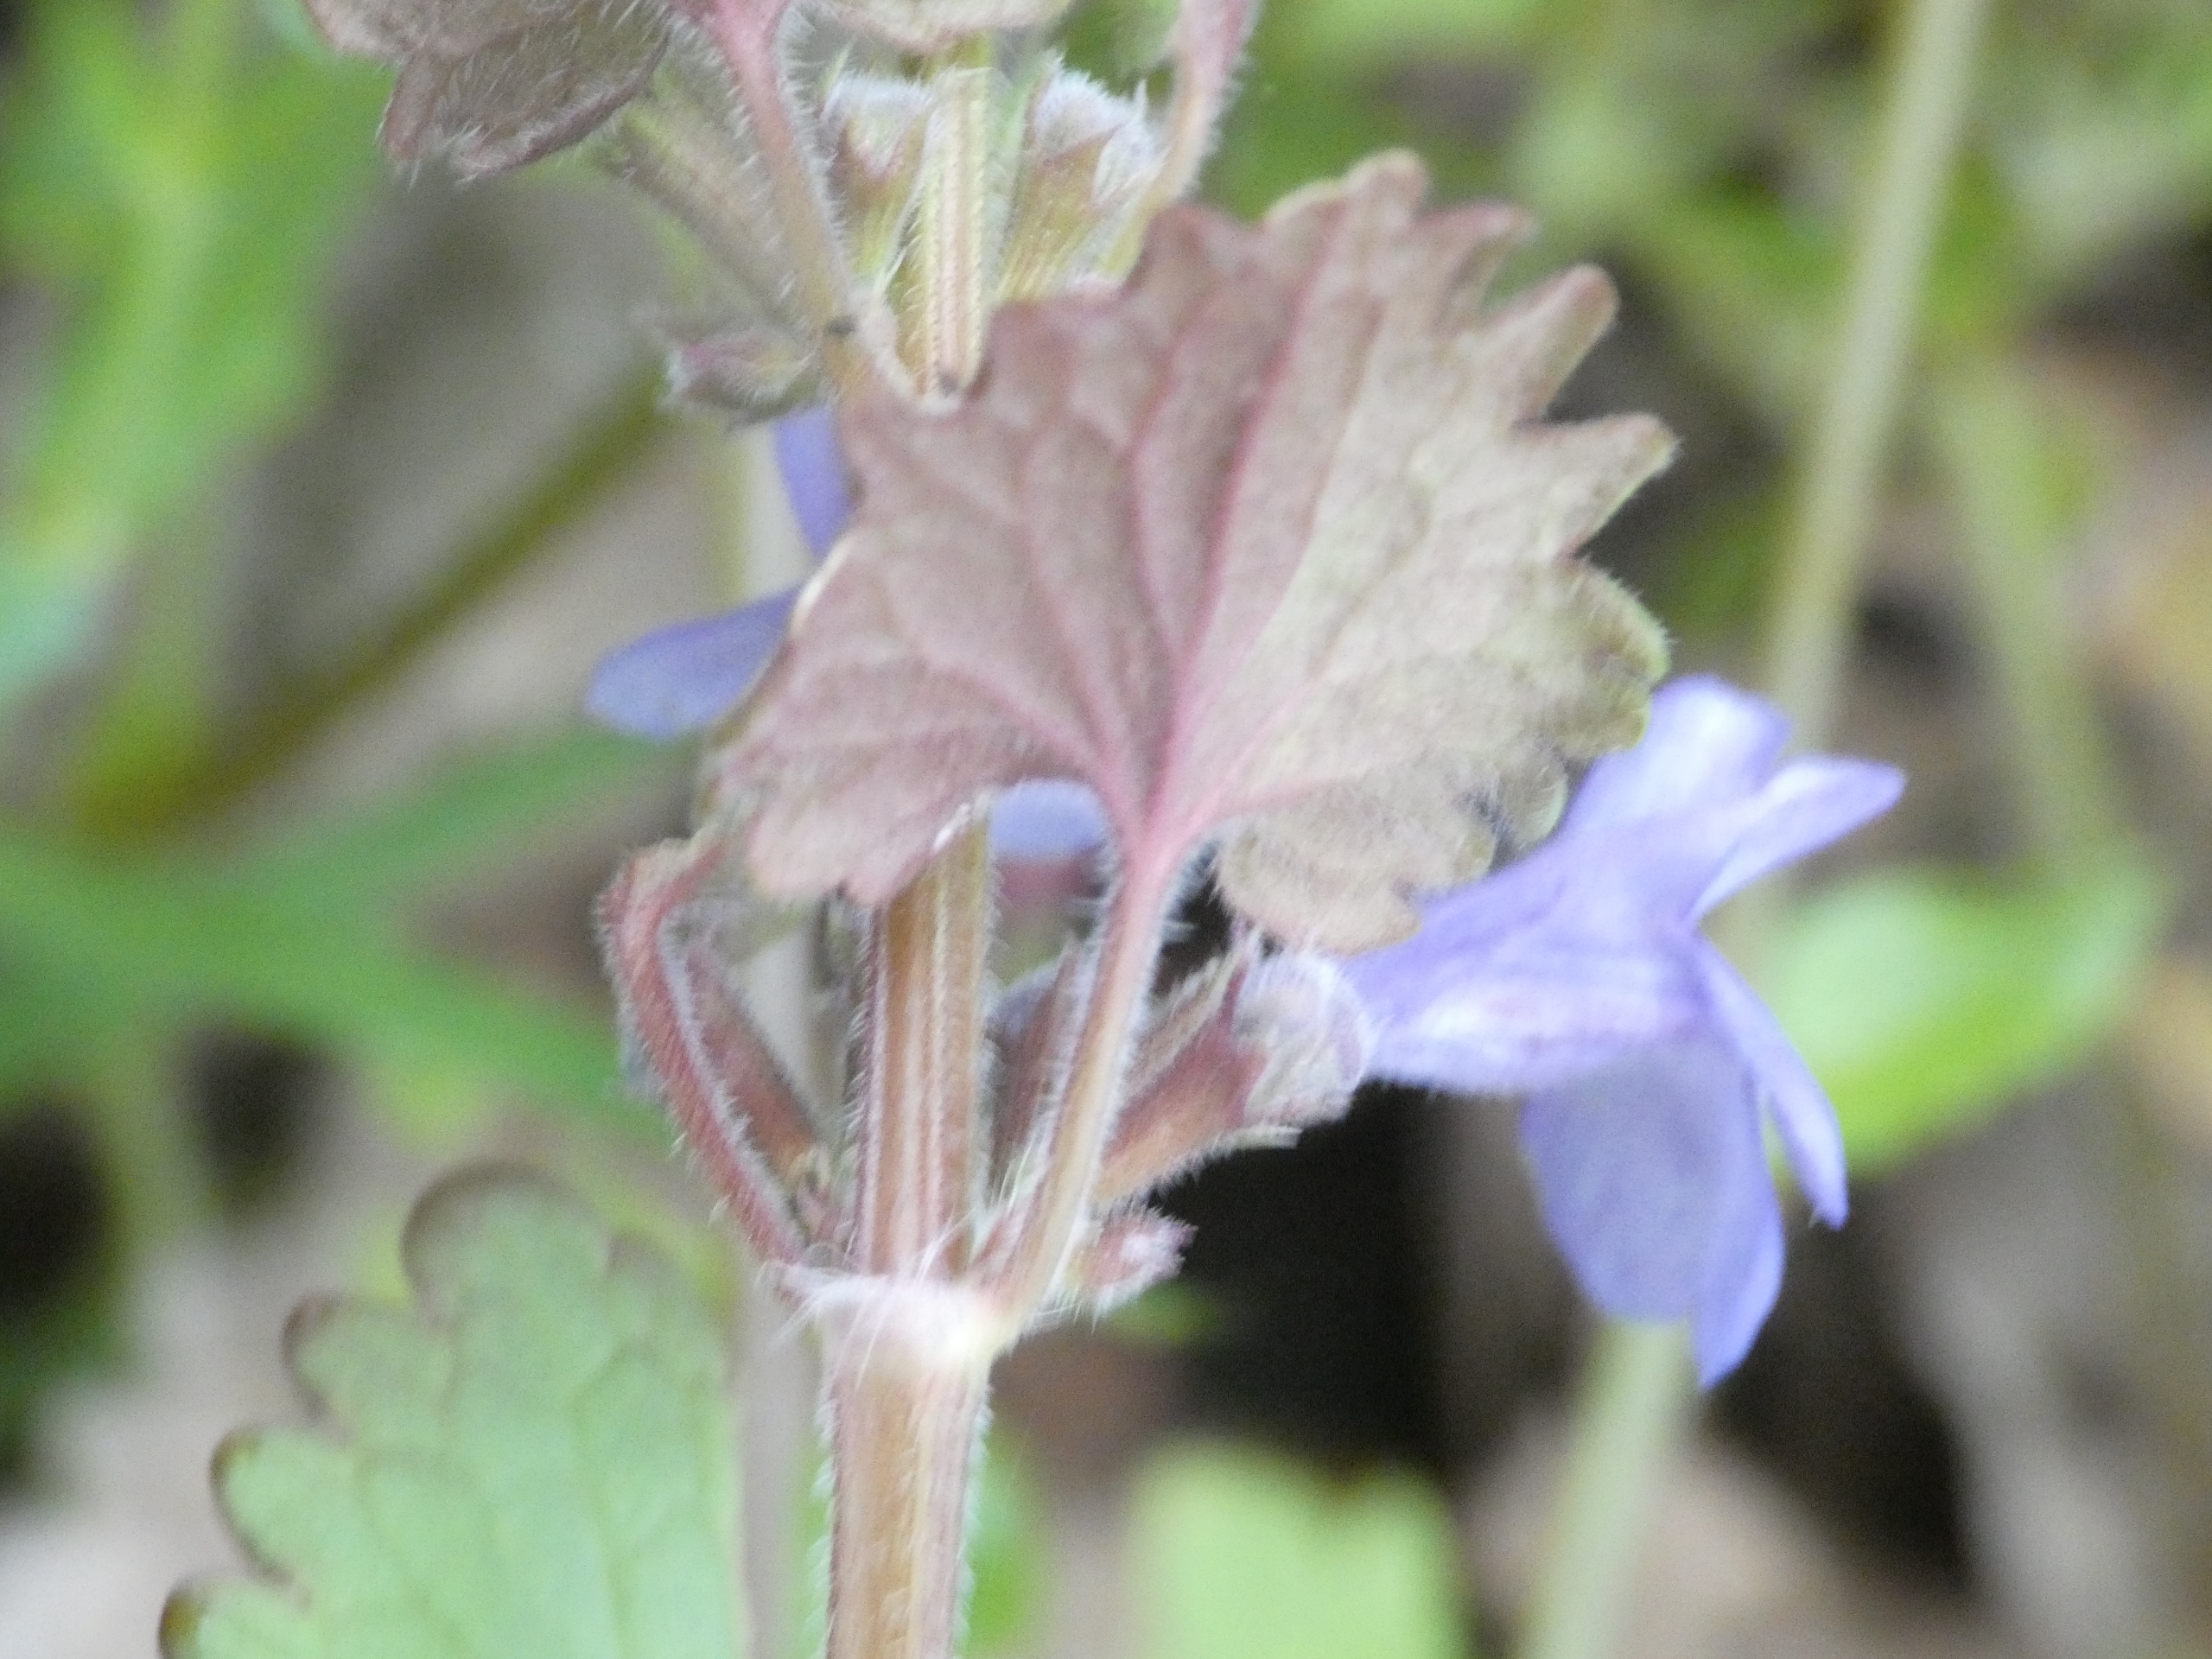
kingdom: Plantae
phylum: Tracheophyta
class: Magnoliopsida
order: Lamiales
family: Lamiaceae
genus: Glechoma
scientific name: Glechoma hederacea
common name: Korsknap
